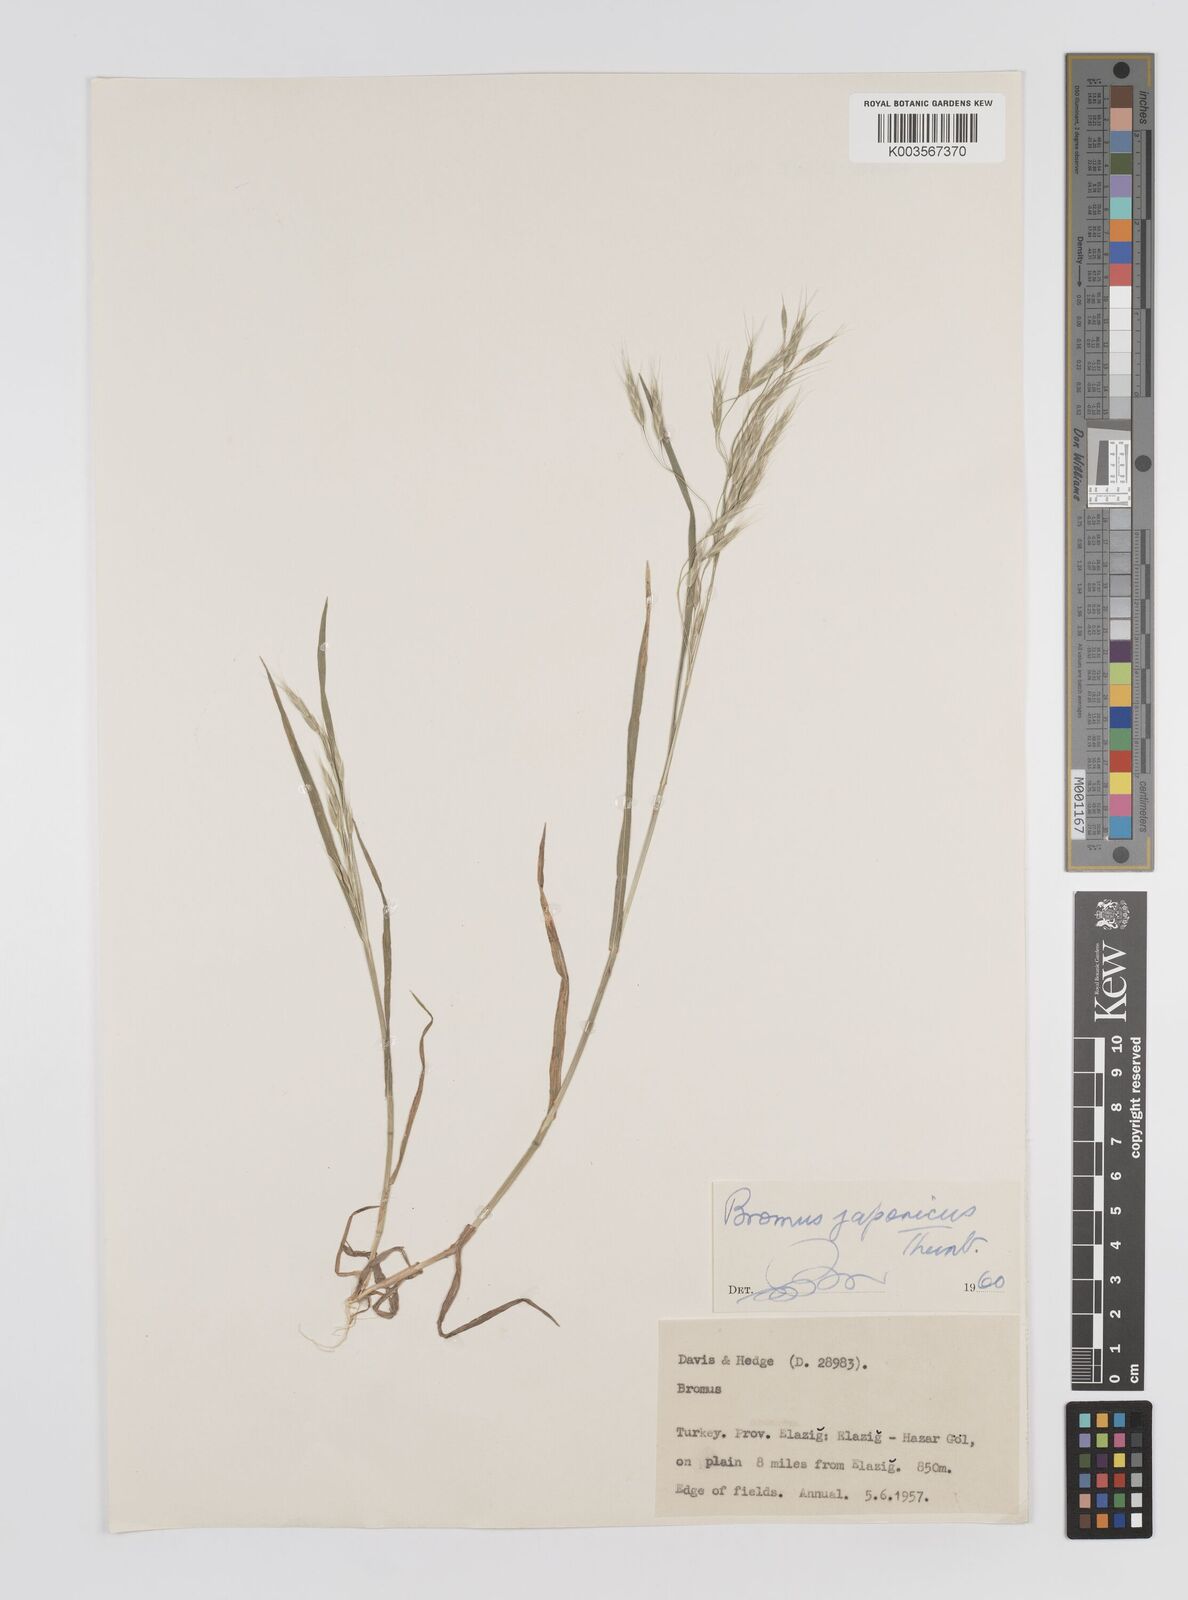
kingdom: Plantae
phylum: Tracheophyta
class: Liliopsida
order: Poales
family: Poaceae
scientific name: Poaceae
